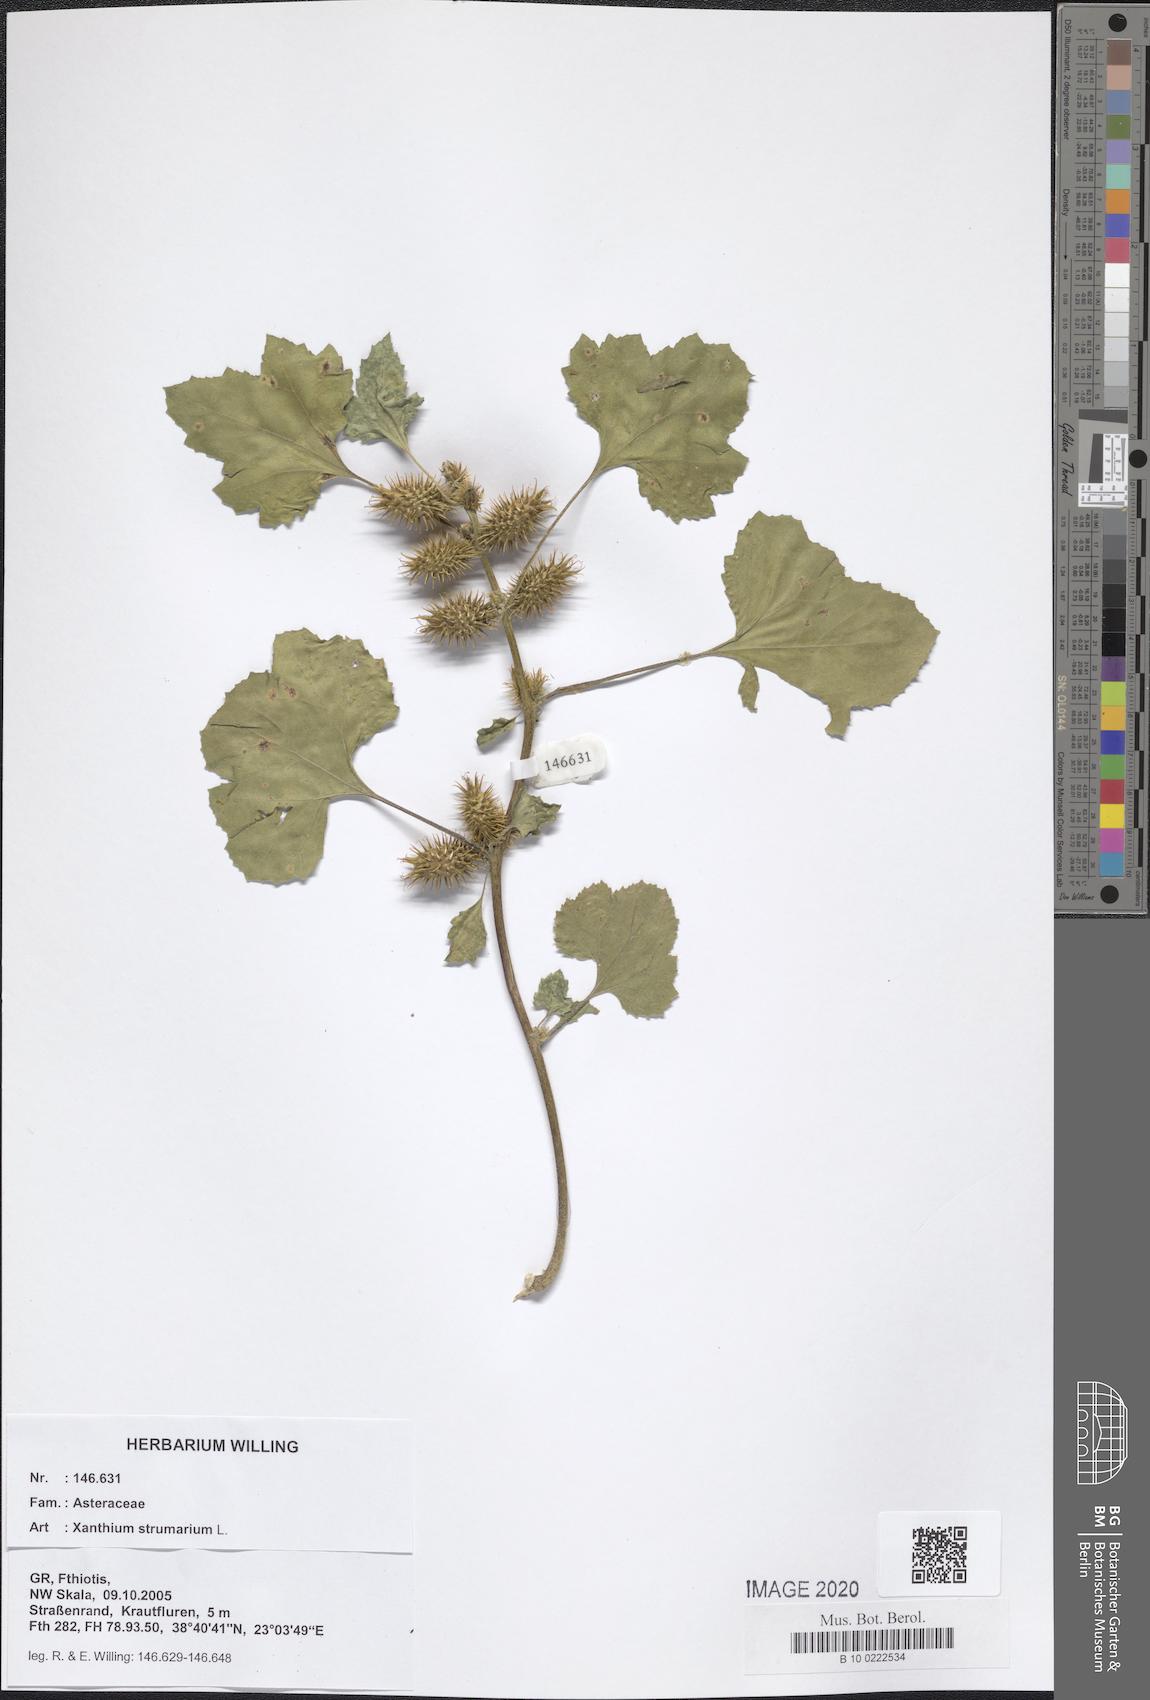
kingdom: Plantae
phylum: Tracheophyta
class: Magnoliopsida
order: Asterales
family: Asteraceae
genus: Xanthium
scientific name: Xanthium strumarium
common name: Rough cocklebur
